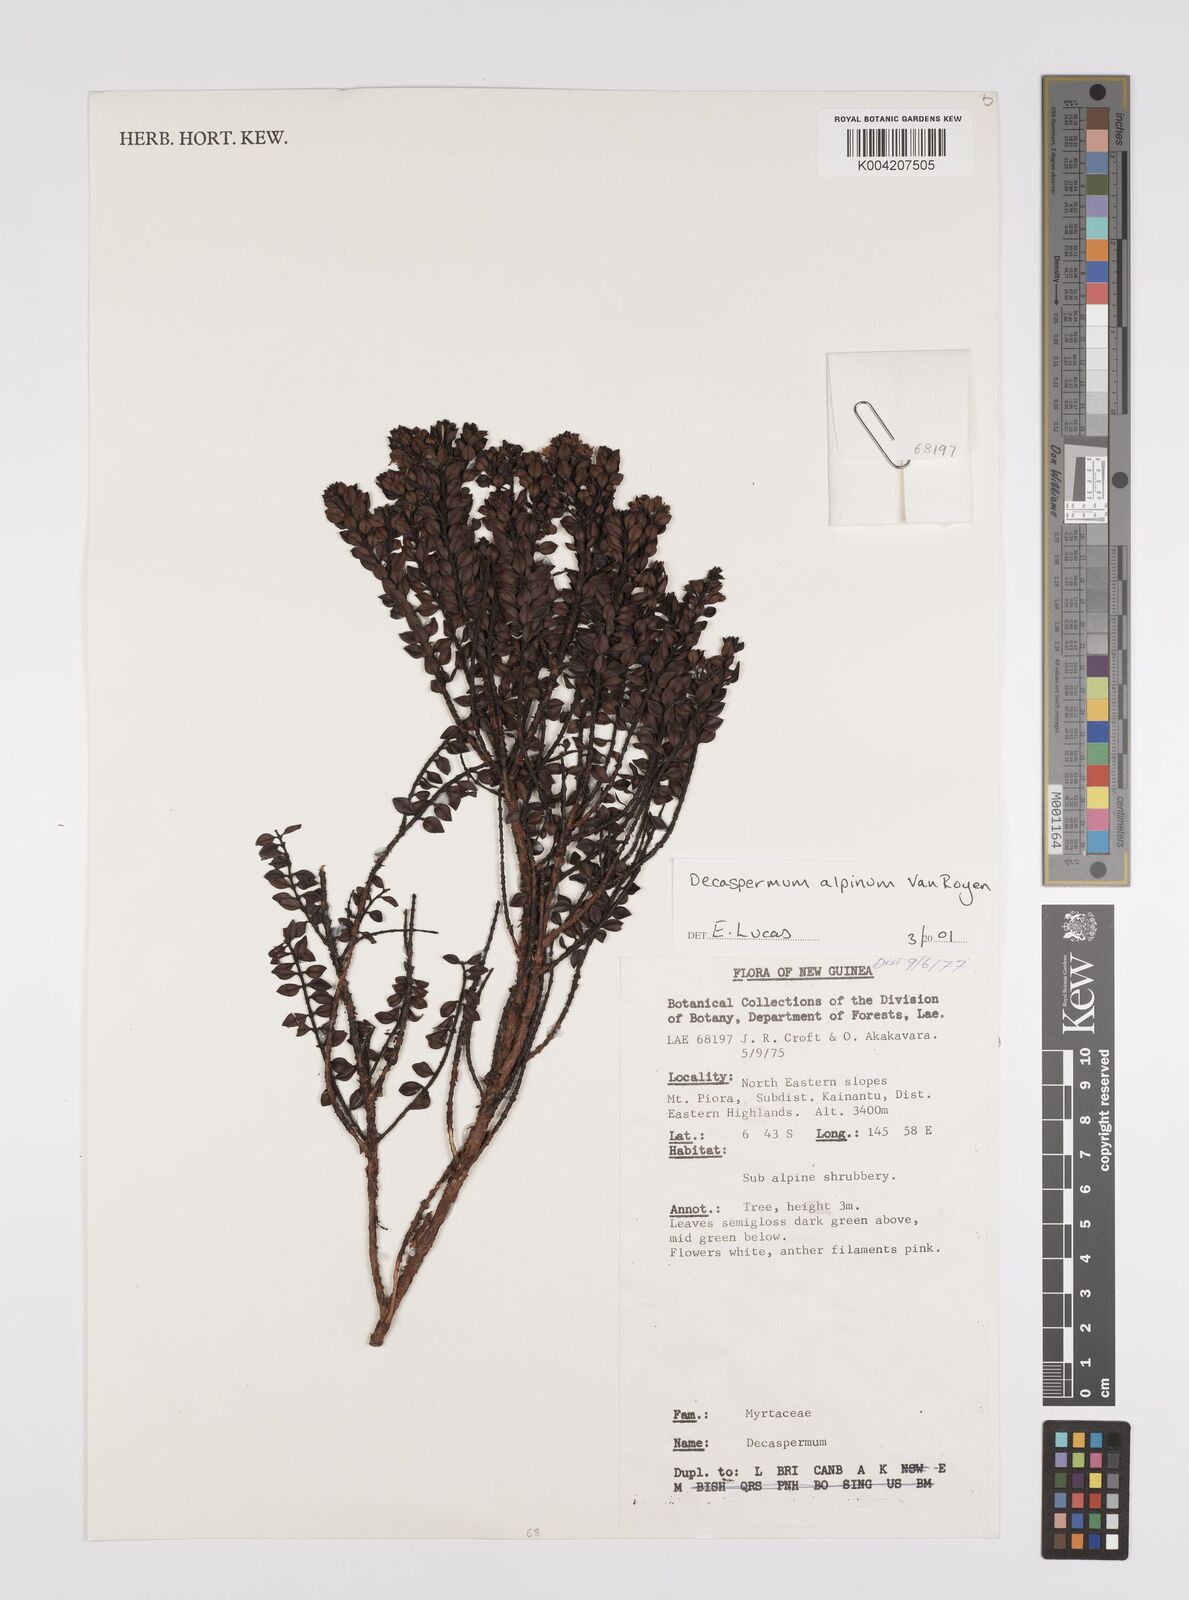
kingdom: Plantae
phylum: Tracheophyta
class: Magnoliopsida
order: Myrtales
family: Myrtaceae
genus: Decaspermum
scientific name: Decaspermum alpinum
